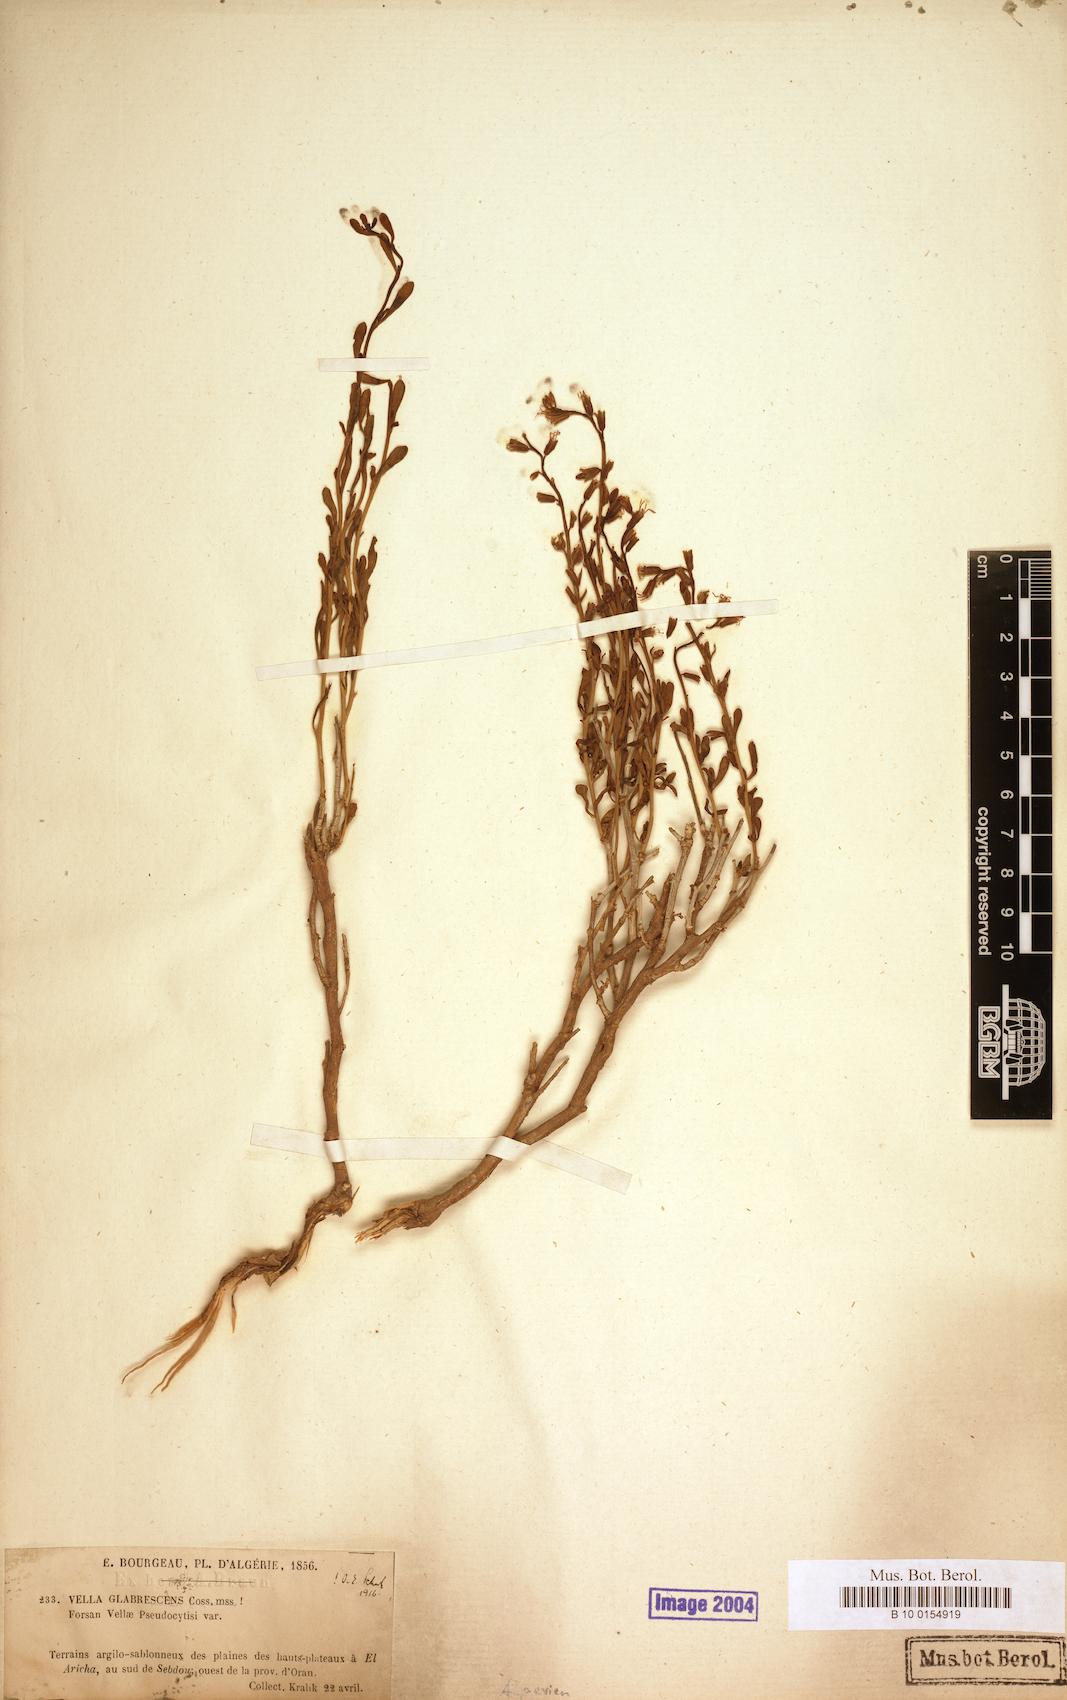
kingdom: Plantae
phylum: Tracheophyta
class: Magnoliopsida
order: Brassicales
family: Brassicaceae
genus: Vella
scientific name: Vella pseudocytisus
